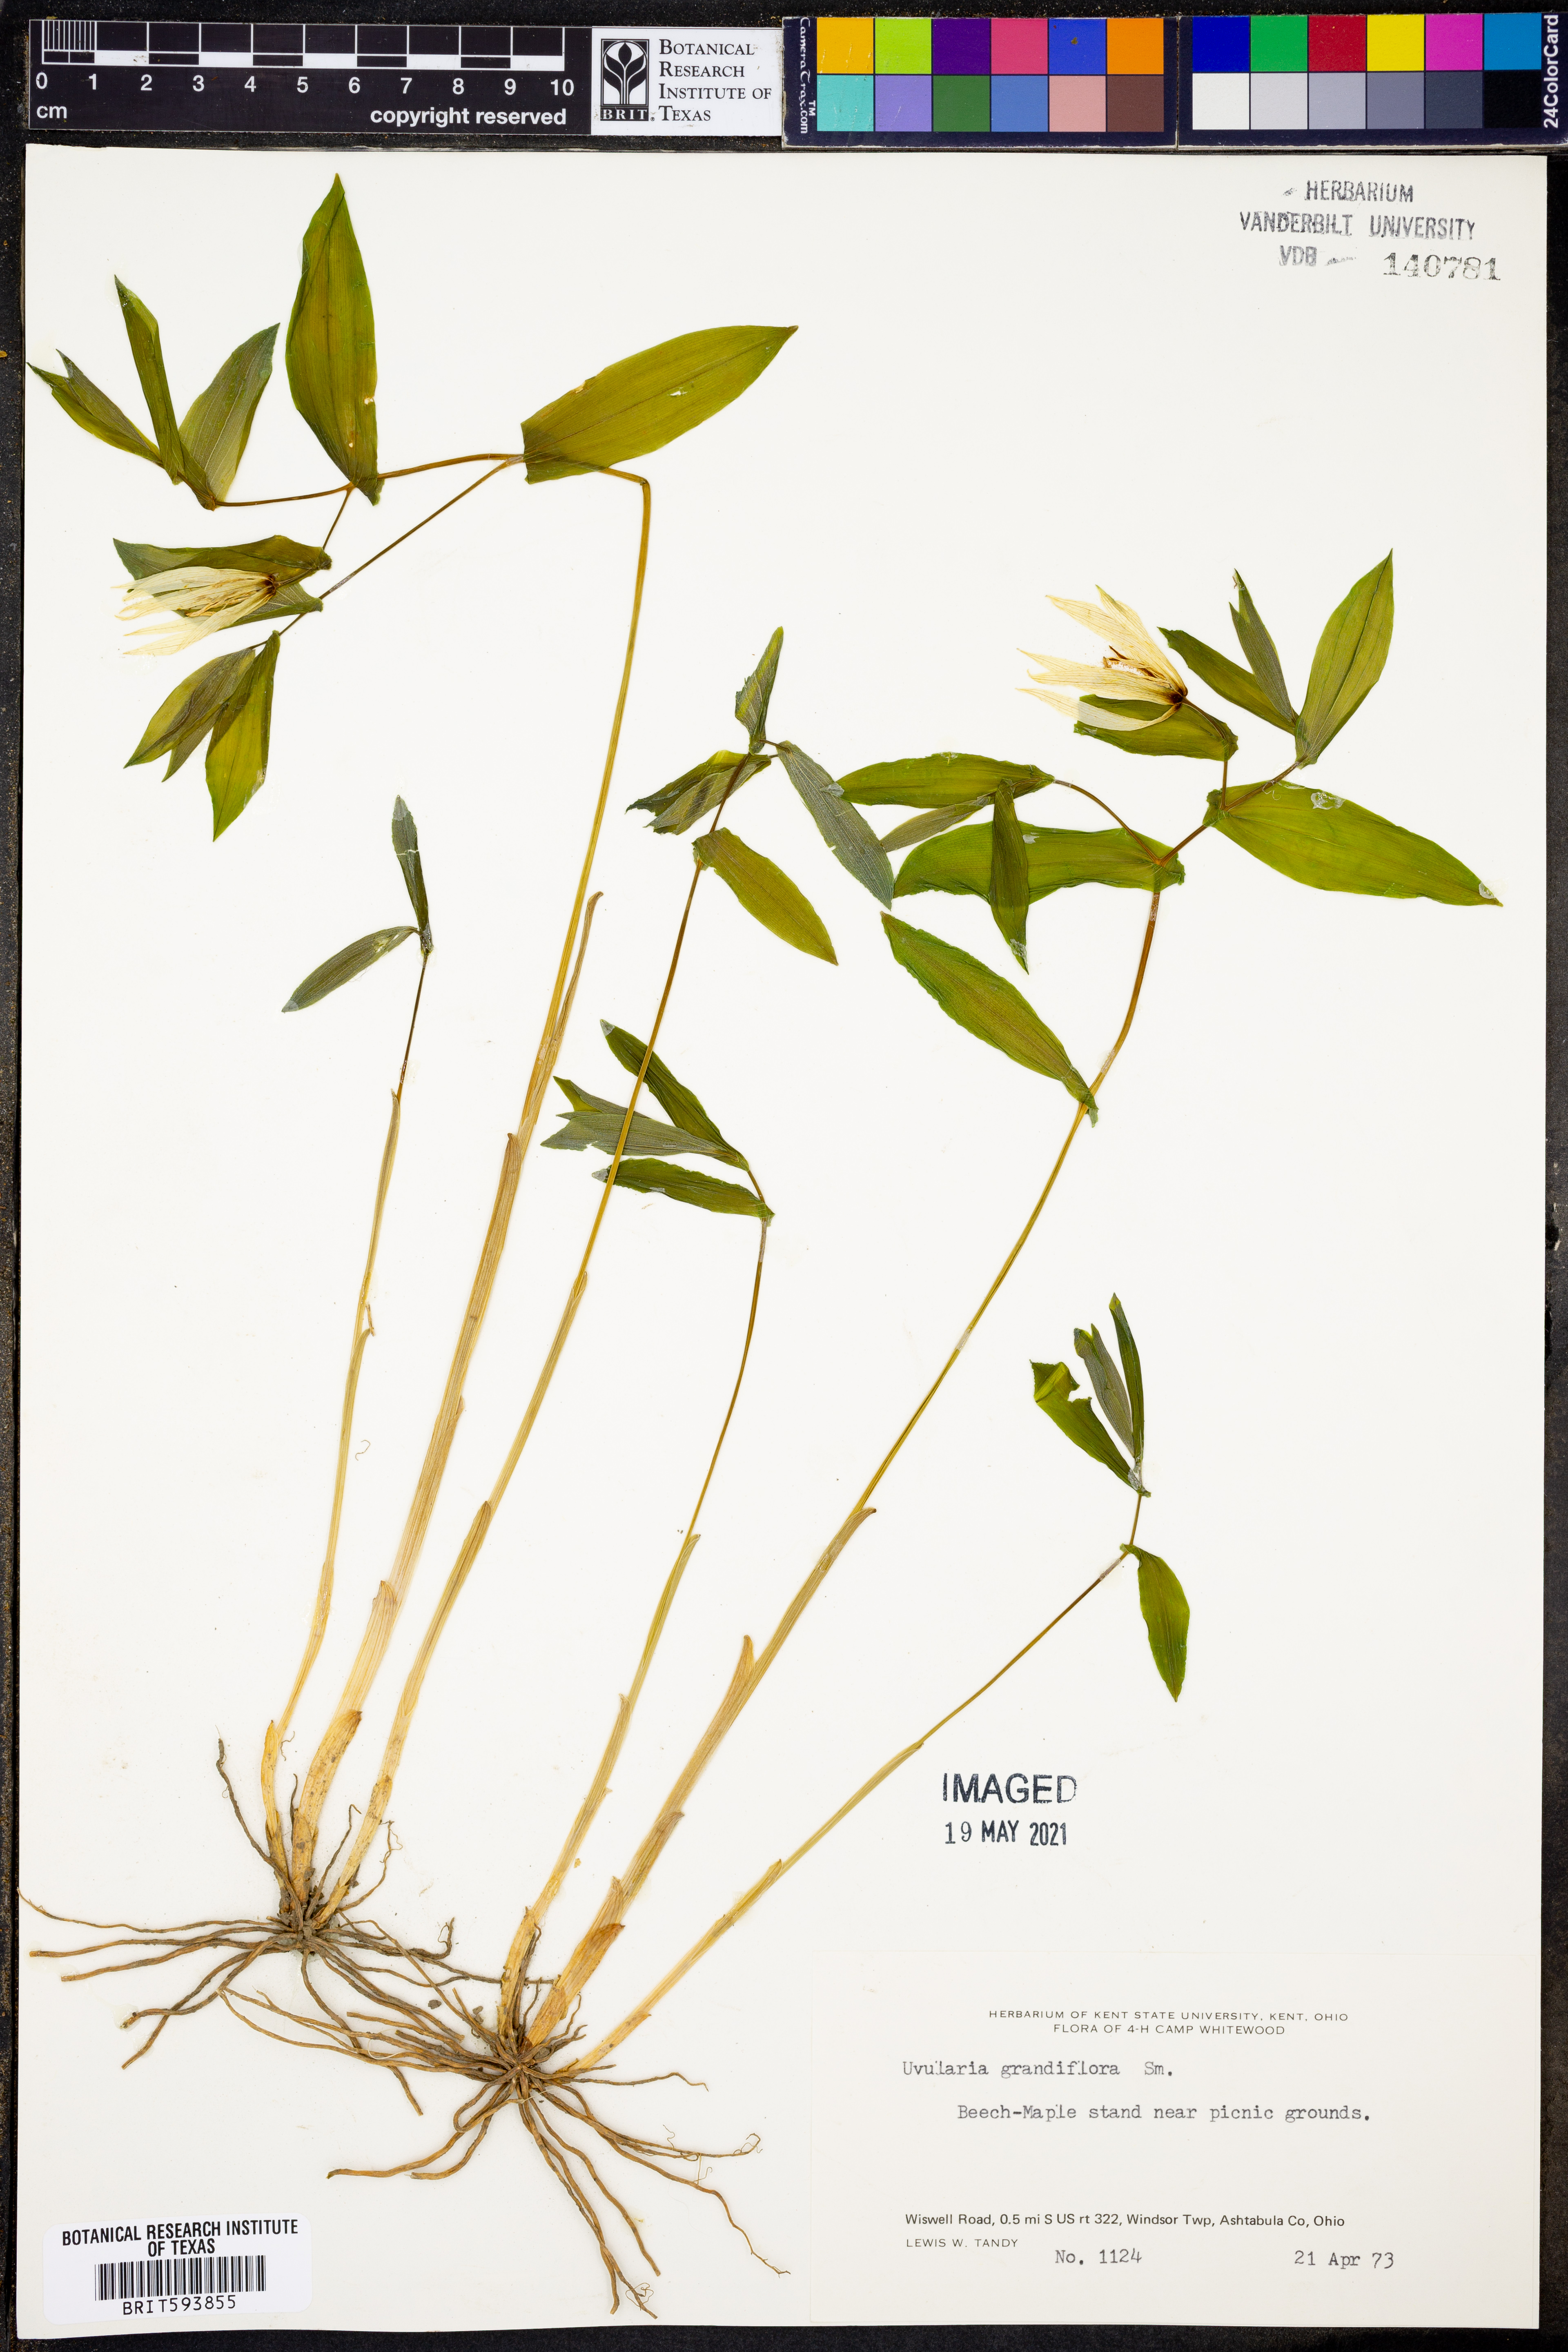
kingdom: Plantae
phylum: Tracheophyta
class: Liliopsida
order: Liliales
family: Colchicaceae
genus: Uvularia
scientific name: Uvularia grandiflora
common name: Bellwort
